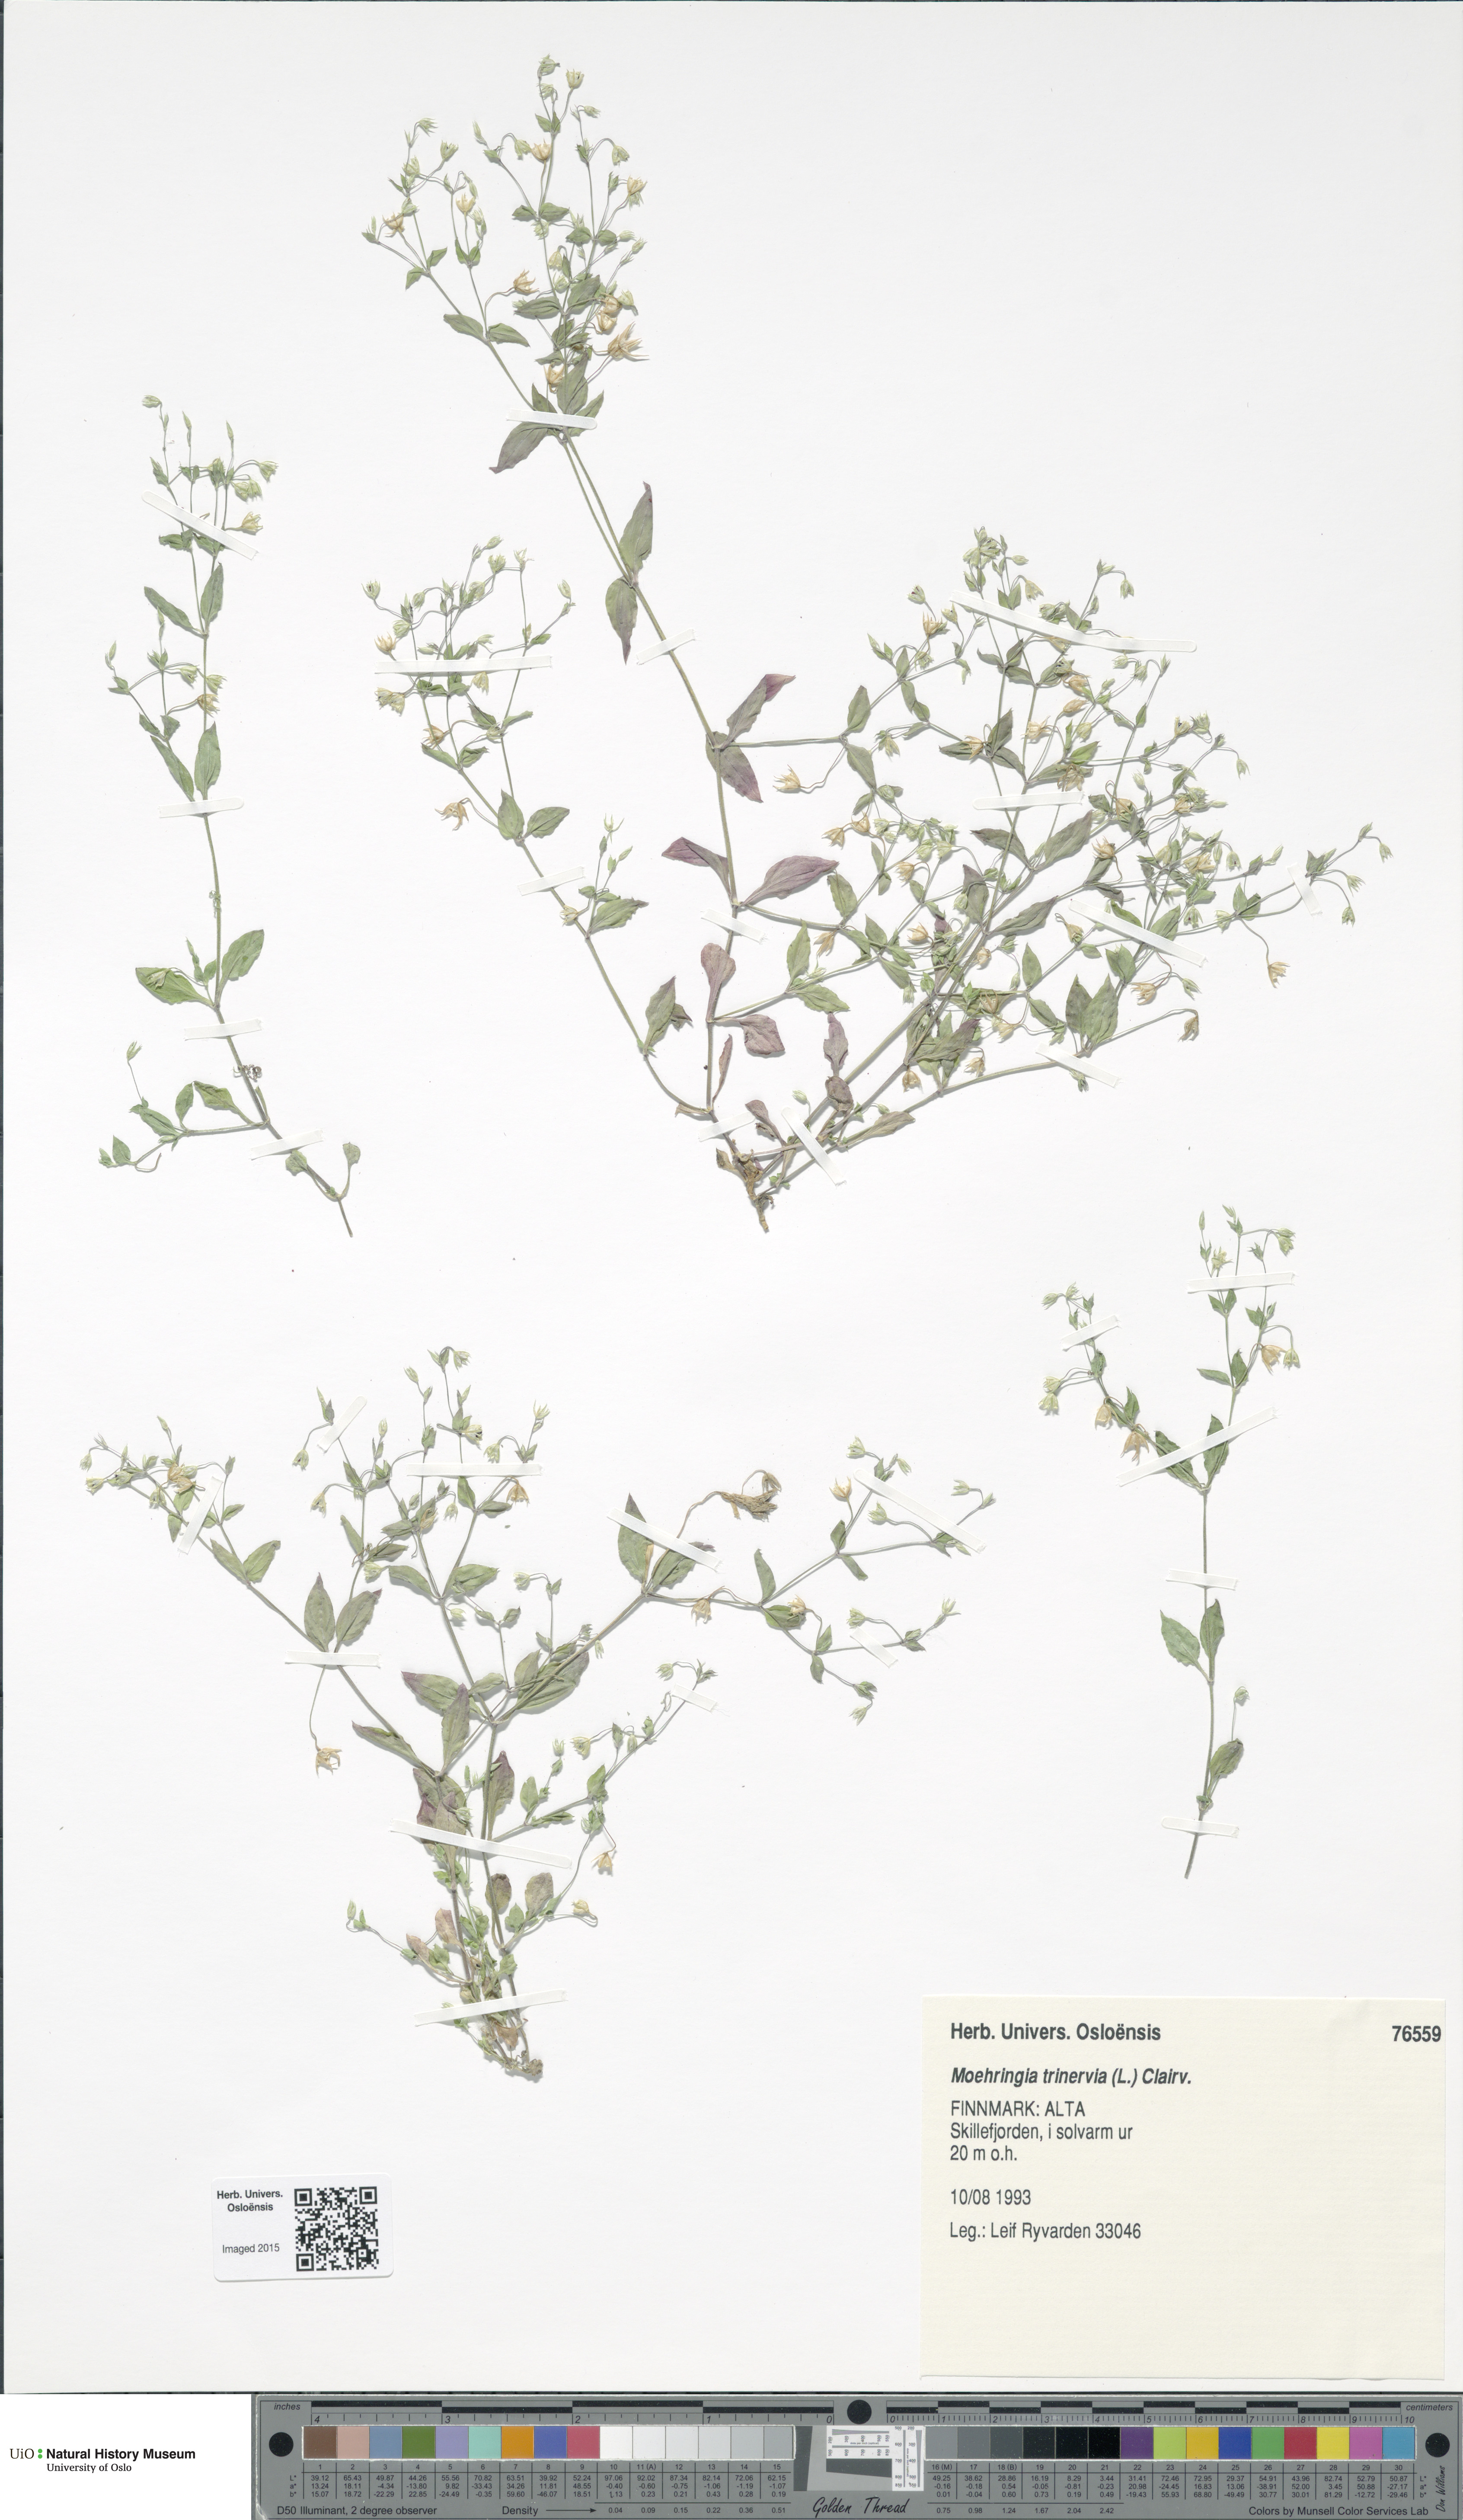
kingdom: Plantae
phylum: Tracheophyta
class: Magnoliopsida
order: Caryophyllales
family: Caryophyllaceae
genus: Moehringia
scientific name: Moehringia trinervia
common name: Three-nerved sandwort
